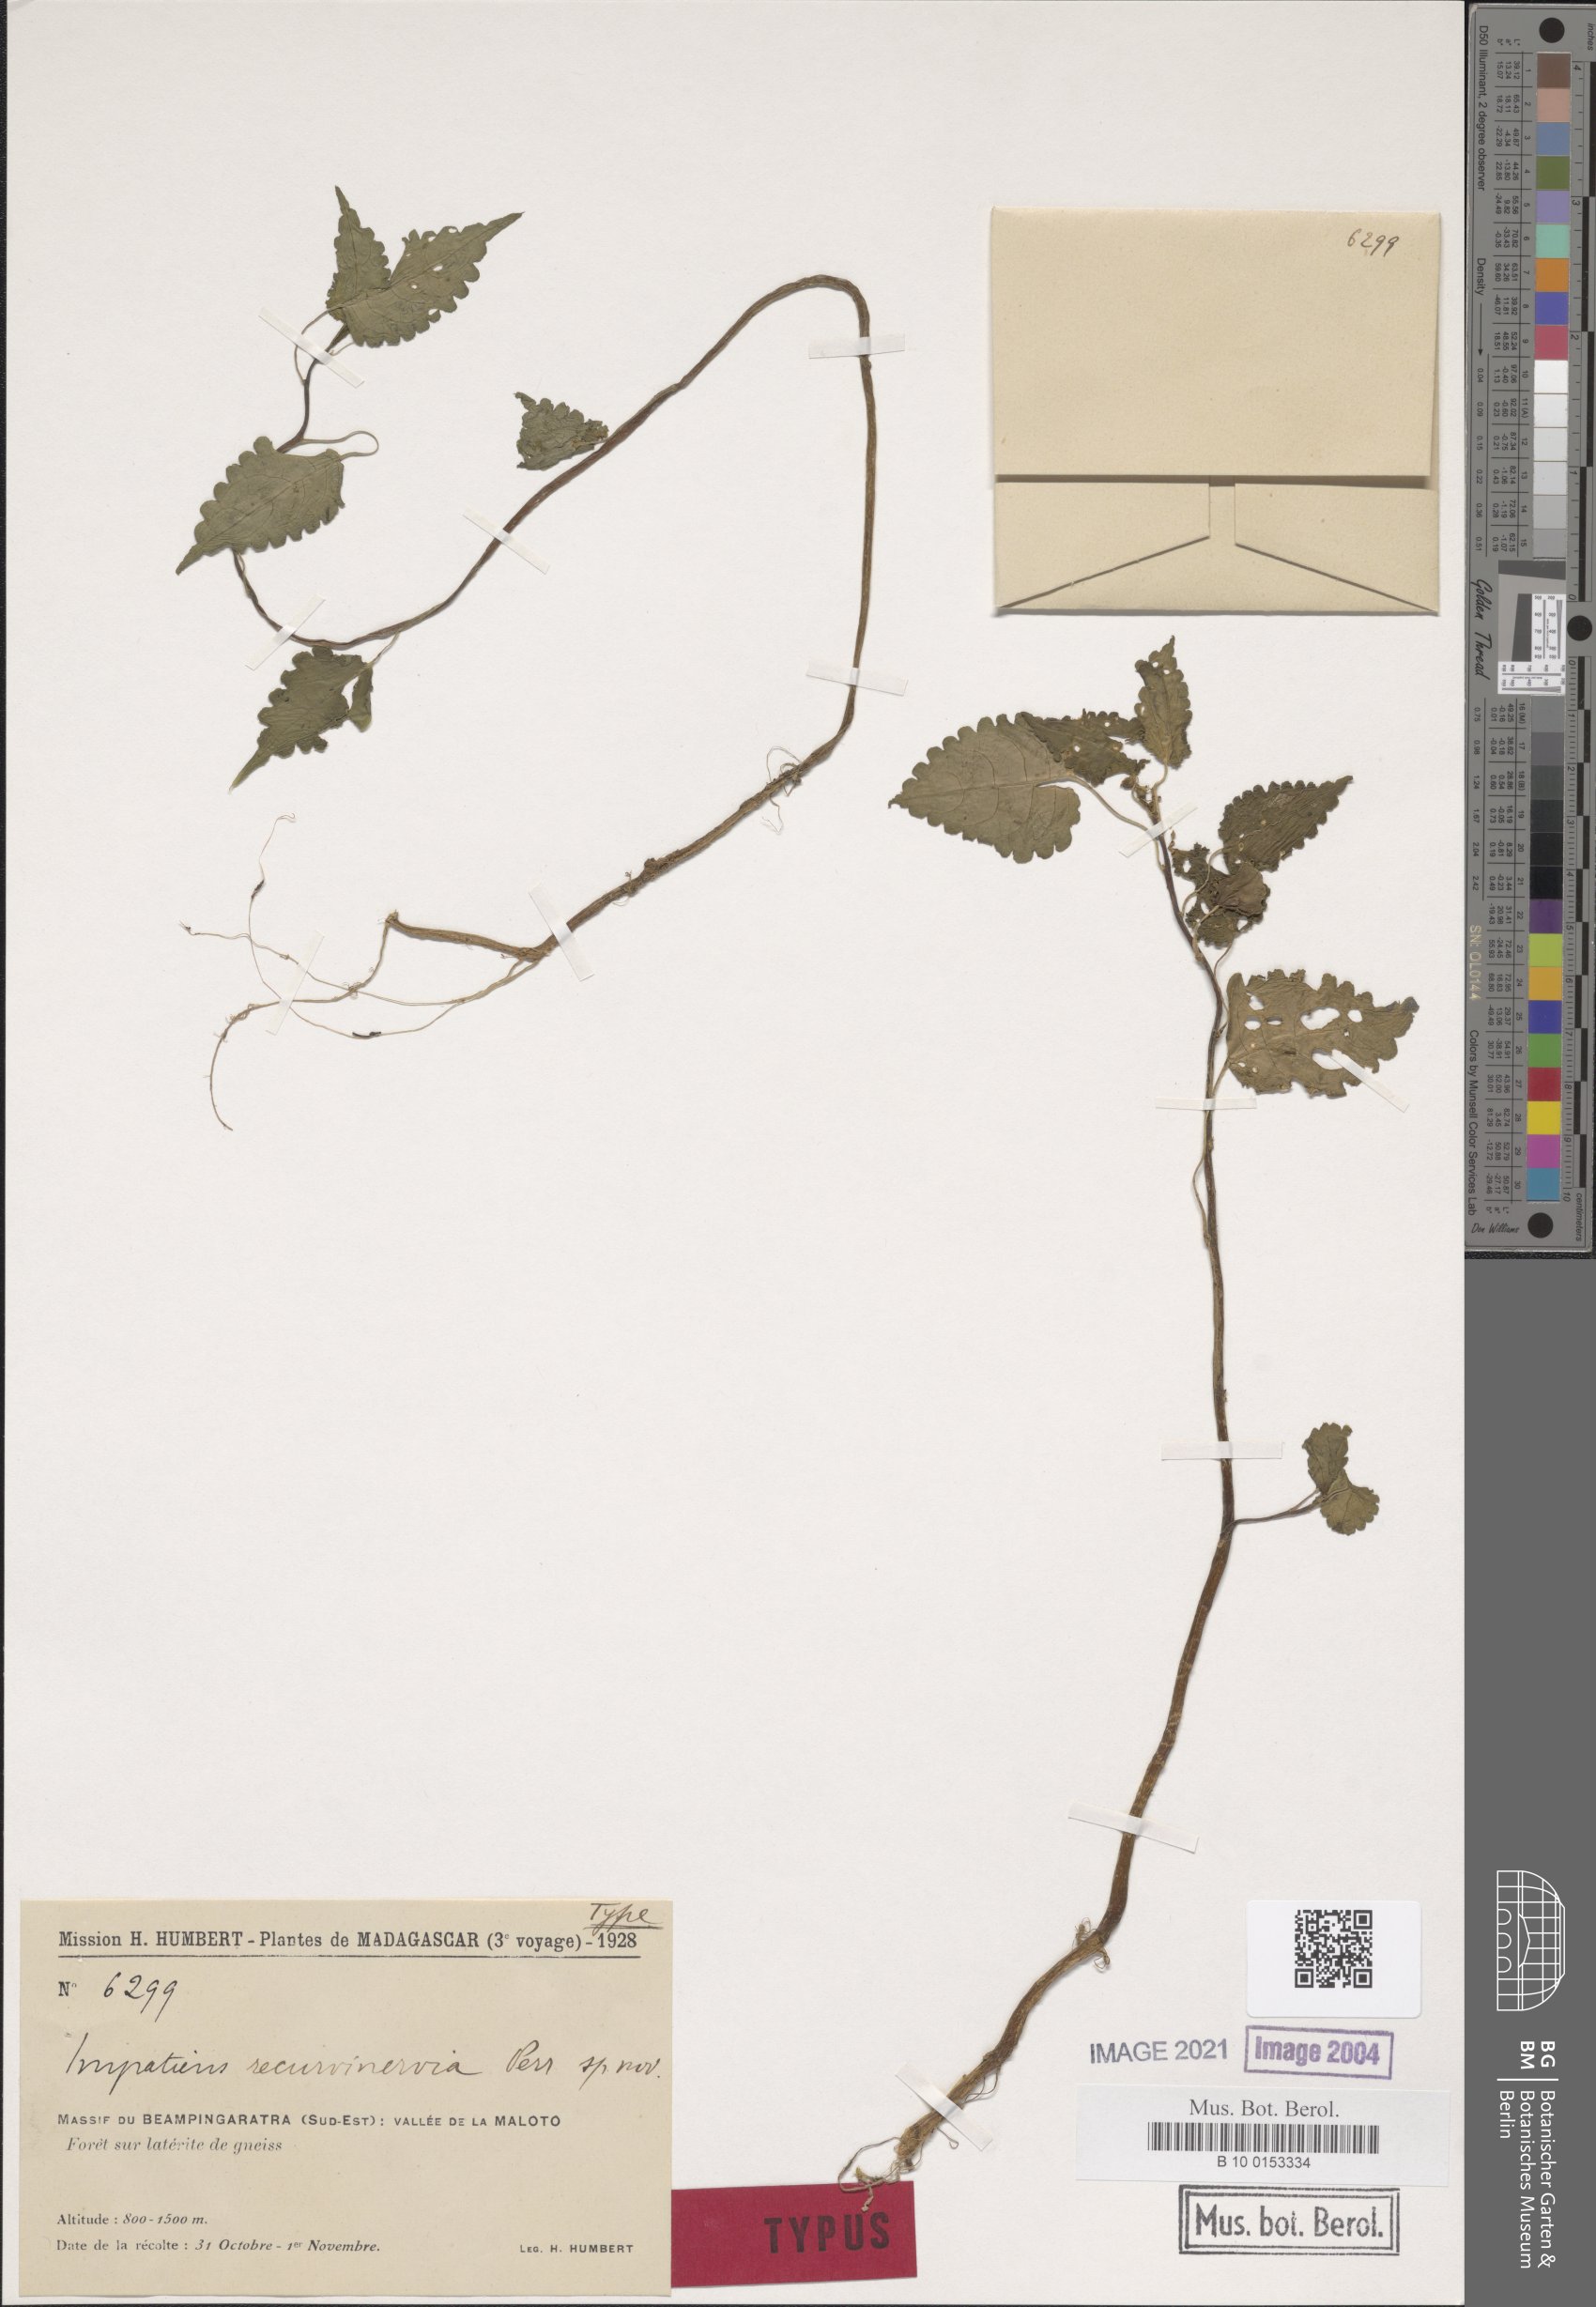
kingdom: Plantae
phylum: Tracheophyta
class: Magnoliopsida
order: Ericales
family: Balsaminaceae
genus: Impatiens
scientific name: Impatiens recurvinervia
